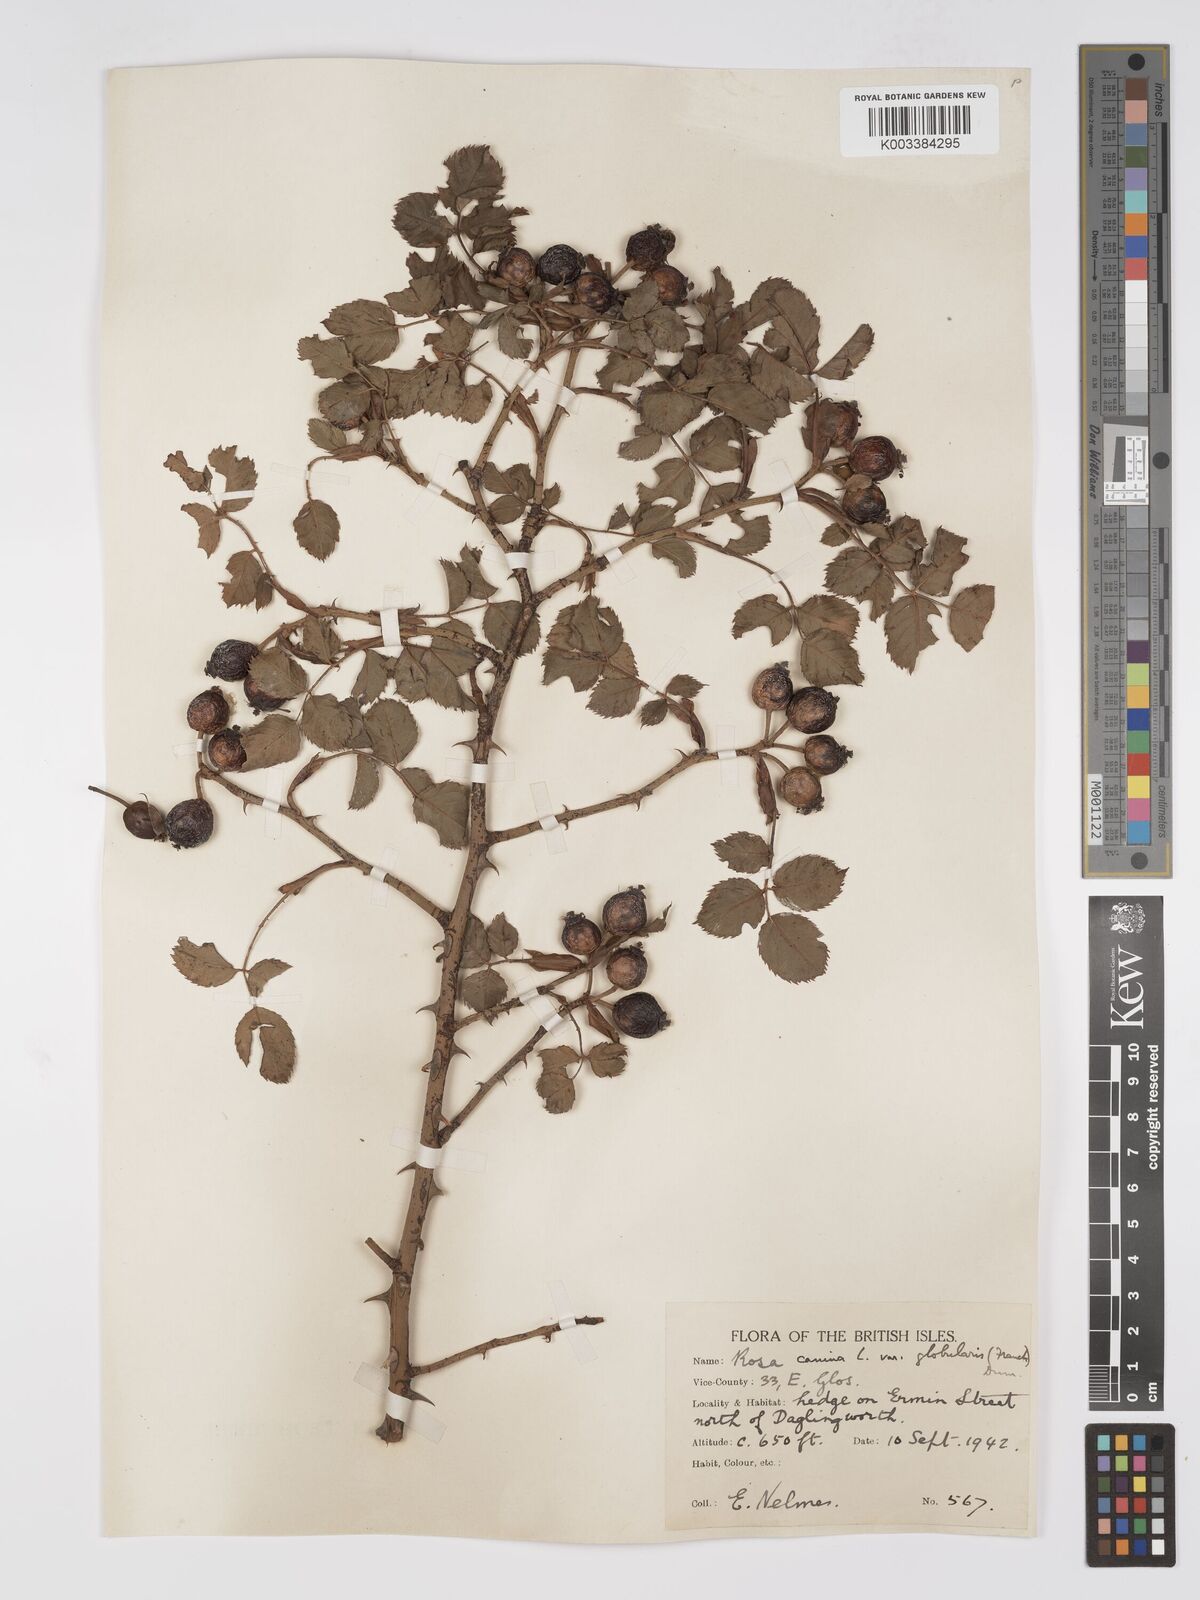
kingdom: Plantae
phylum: Tracheophyta
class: Magnoliopsida
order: Rosales
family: Rosaceae
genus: Rosa
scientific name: Rosa canina
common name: Dog rose
